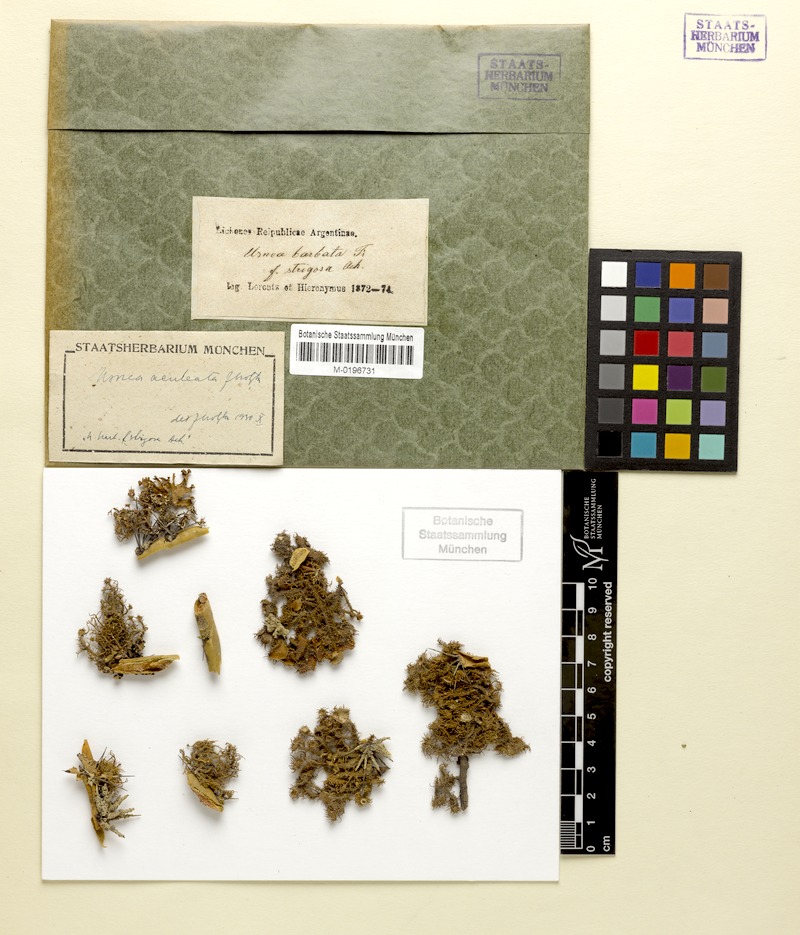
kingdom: Fungi
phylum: Ascomycota
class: Lecanoromycetes
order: Lecanorales
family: Parmeliaceae
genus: Usnea
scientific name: Usnea aculeata
